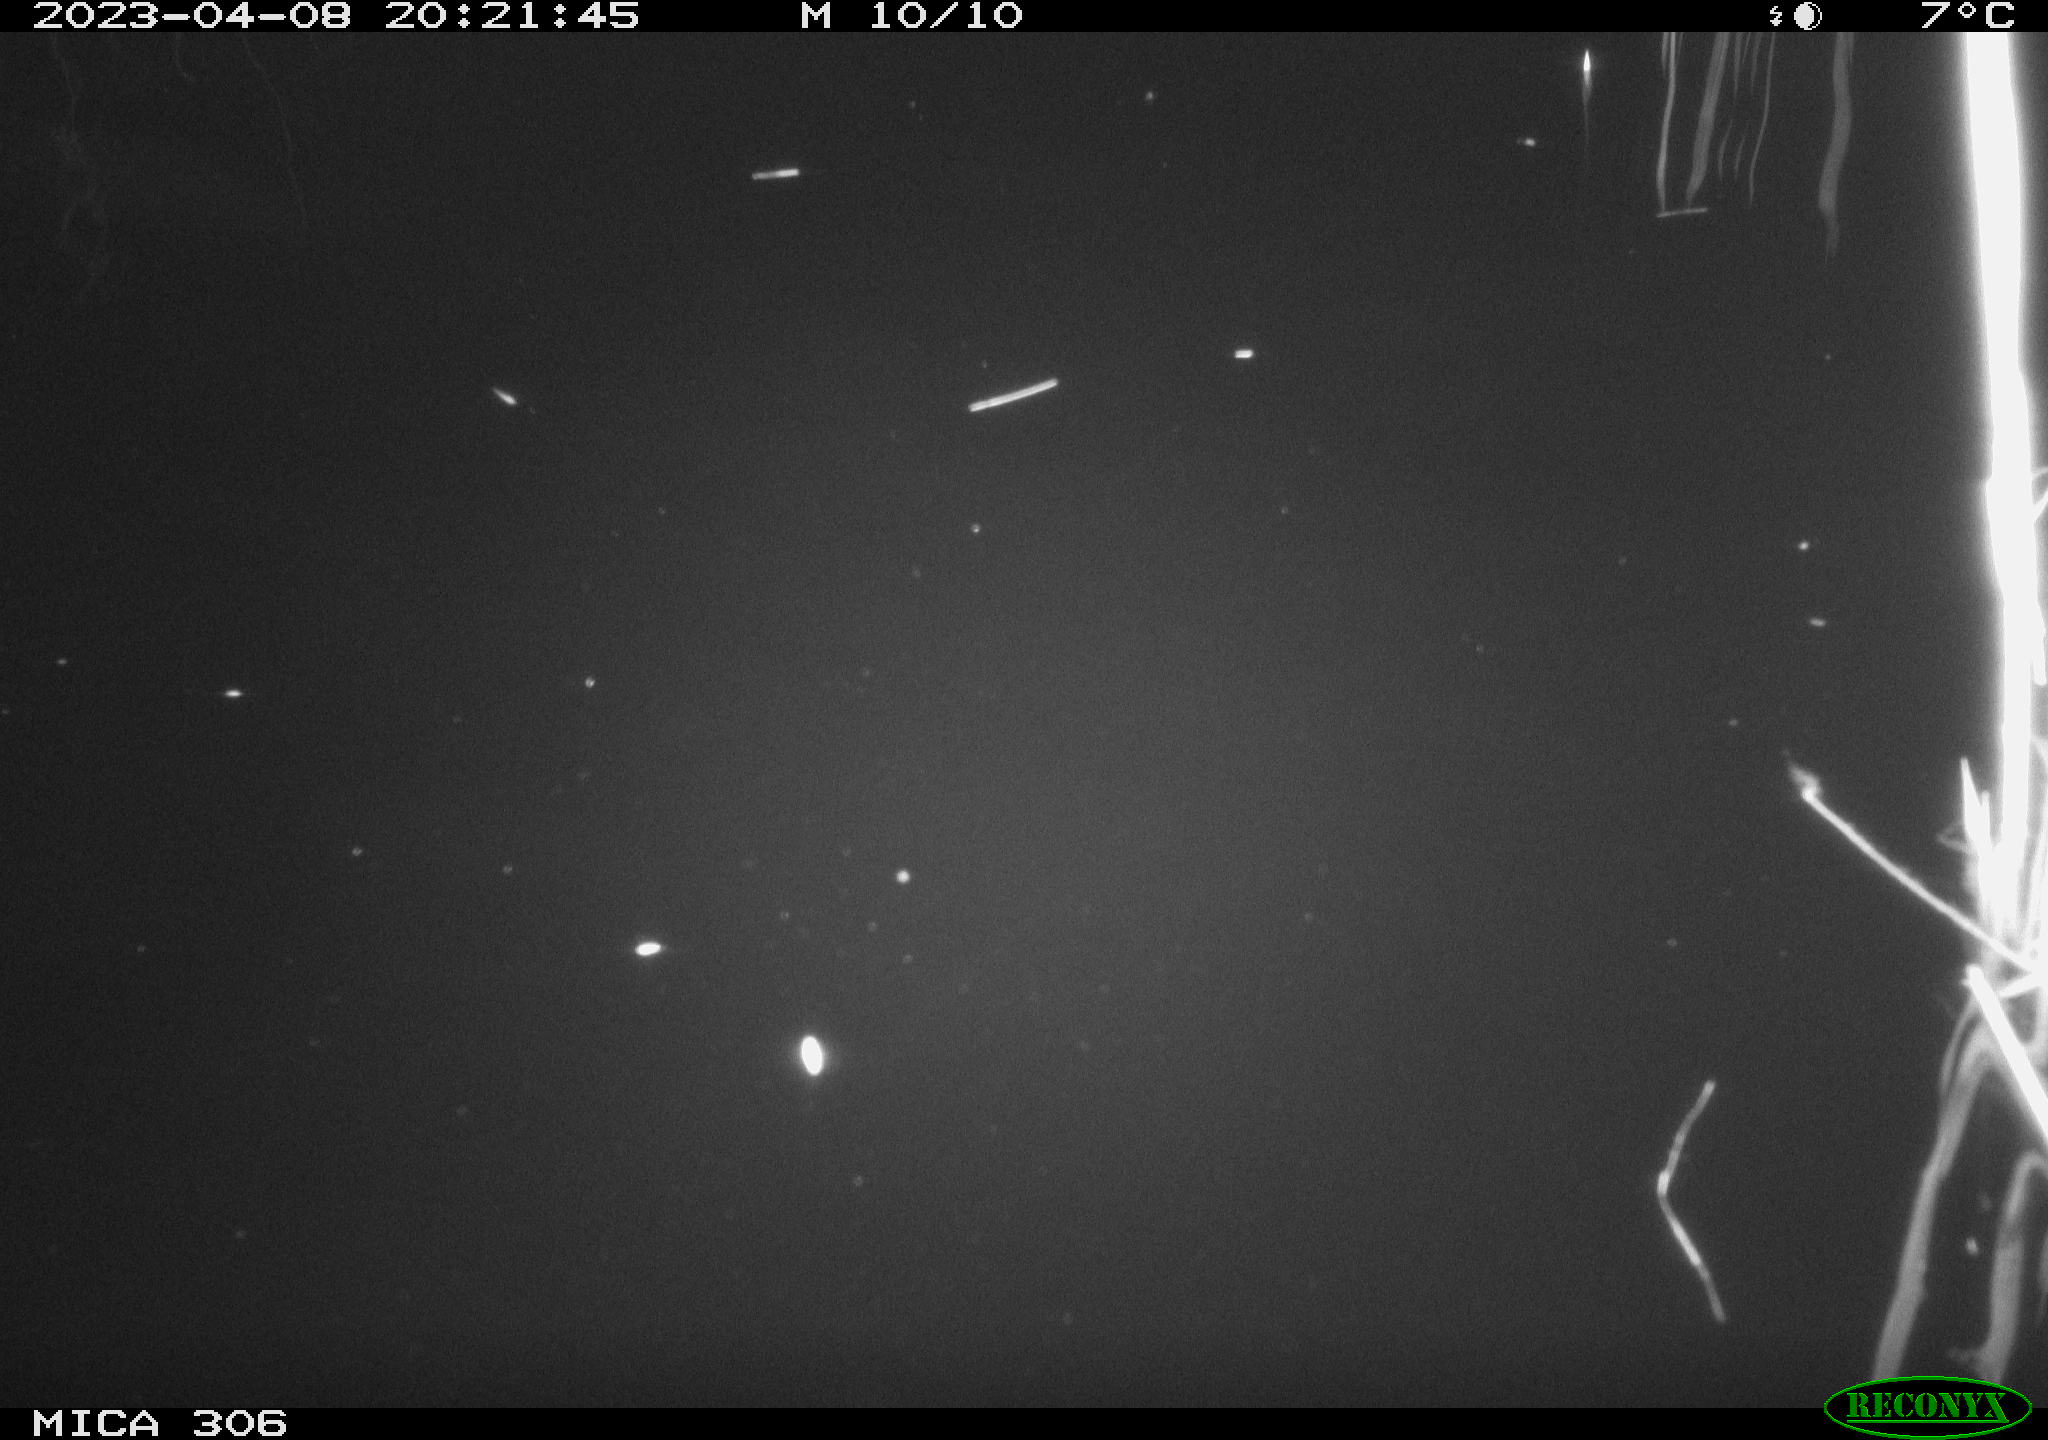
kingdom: Animalia
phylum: Chordata
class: Aves
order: Anseriformes
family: Anatidae
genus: Anas
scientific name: Anas
